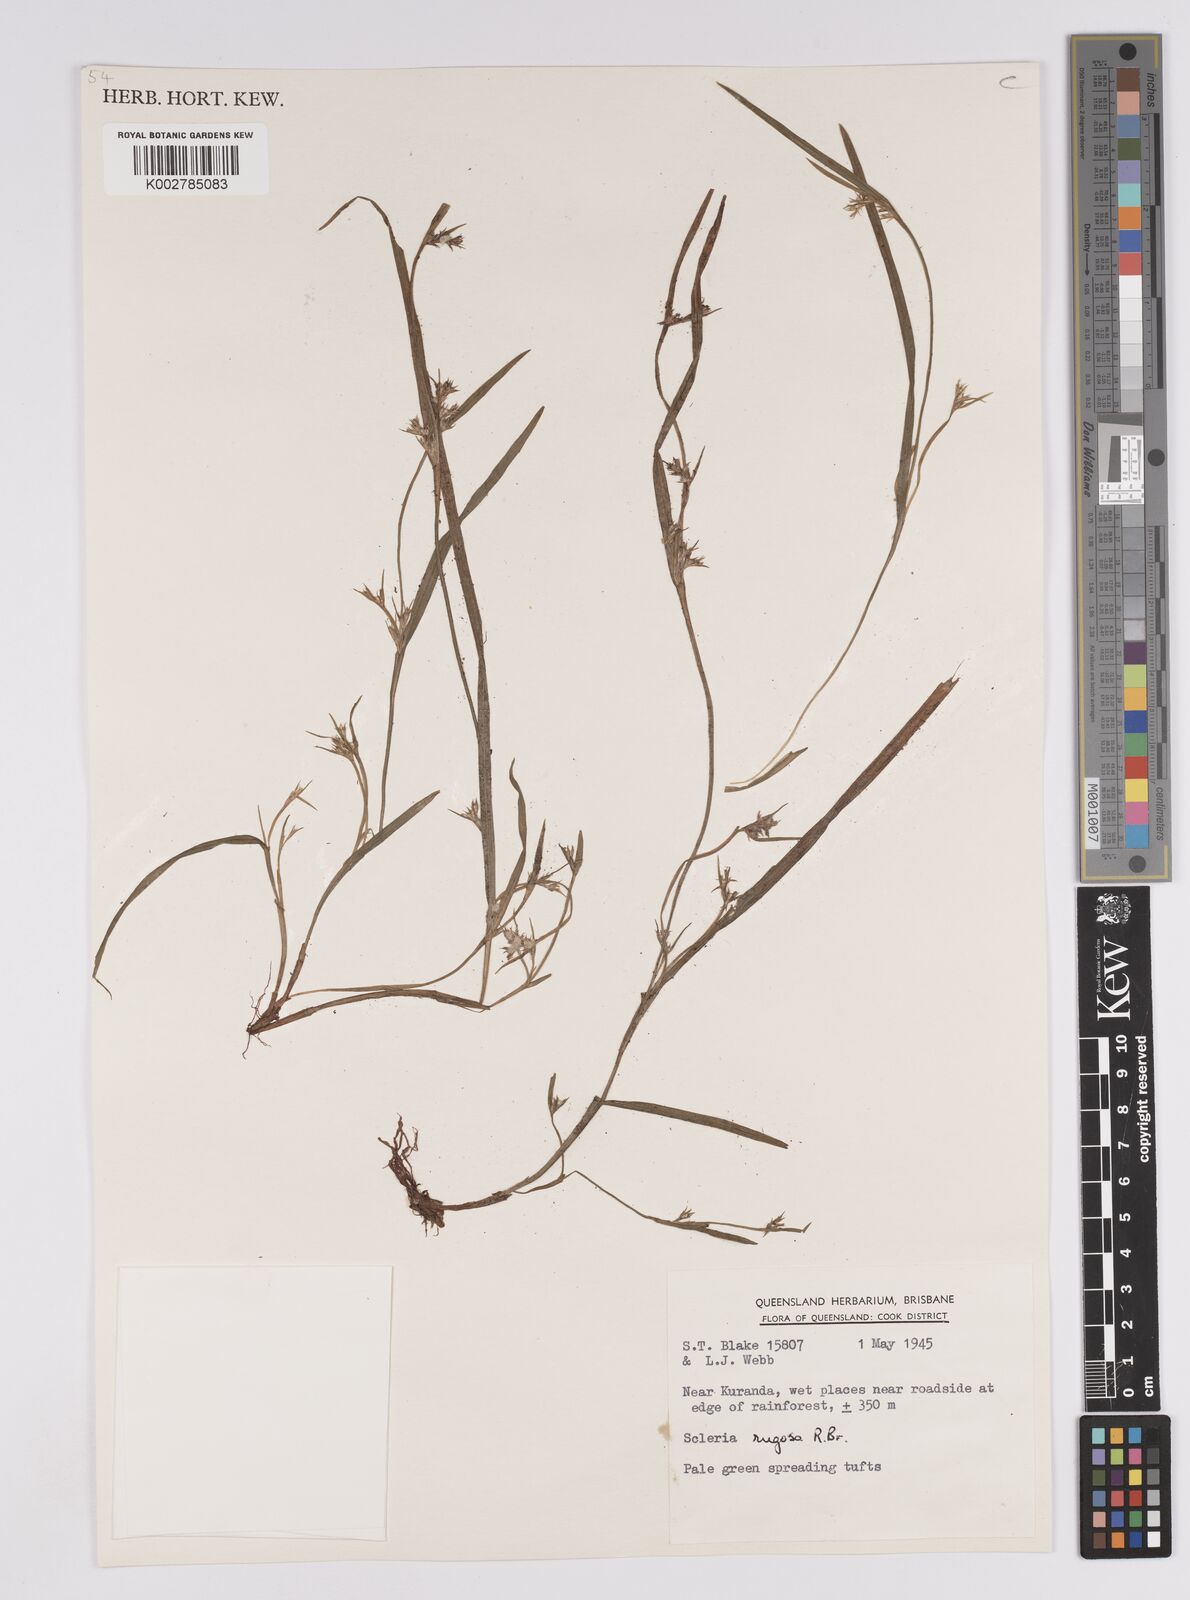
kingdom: Plantae
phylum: Tracheophyta
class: Liliopsida
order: Poales
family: Cyperaceae
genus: Scleria
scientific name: Scleria rugosa
